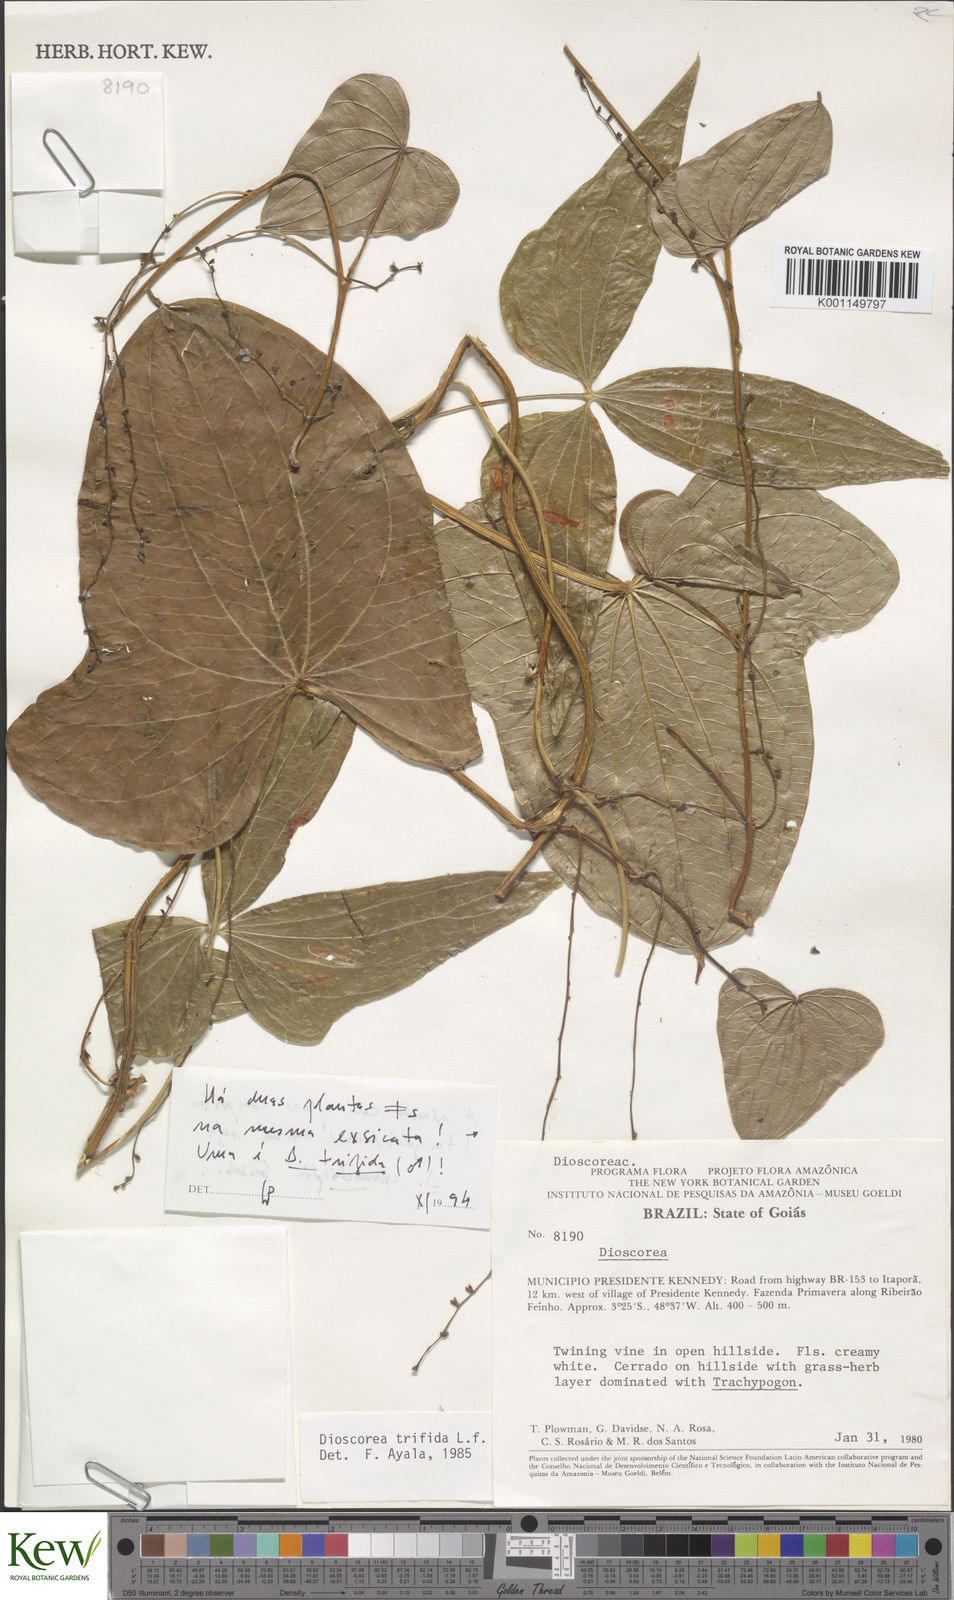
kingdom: Plantae
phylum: Tracheophyta
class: Liliopsida
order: Dioscoreales
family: Dioscoreaceae
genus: Dioscorea
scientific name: Dioscorea trifida
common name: Cush-cush
